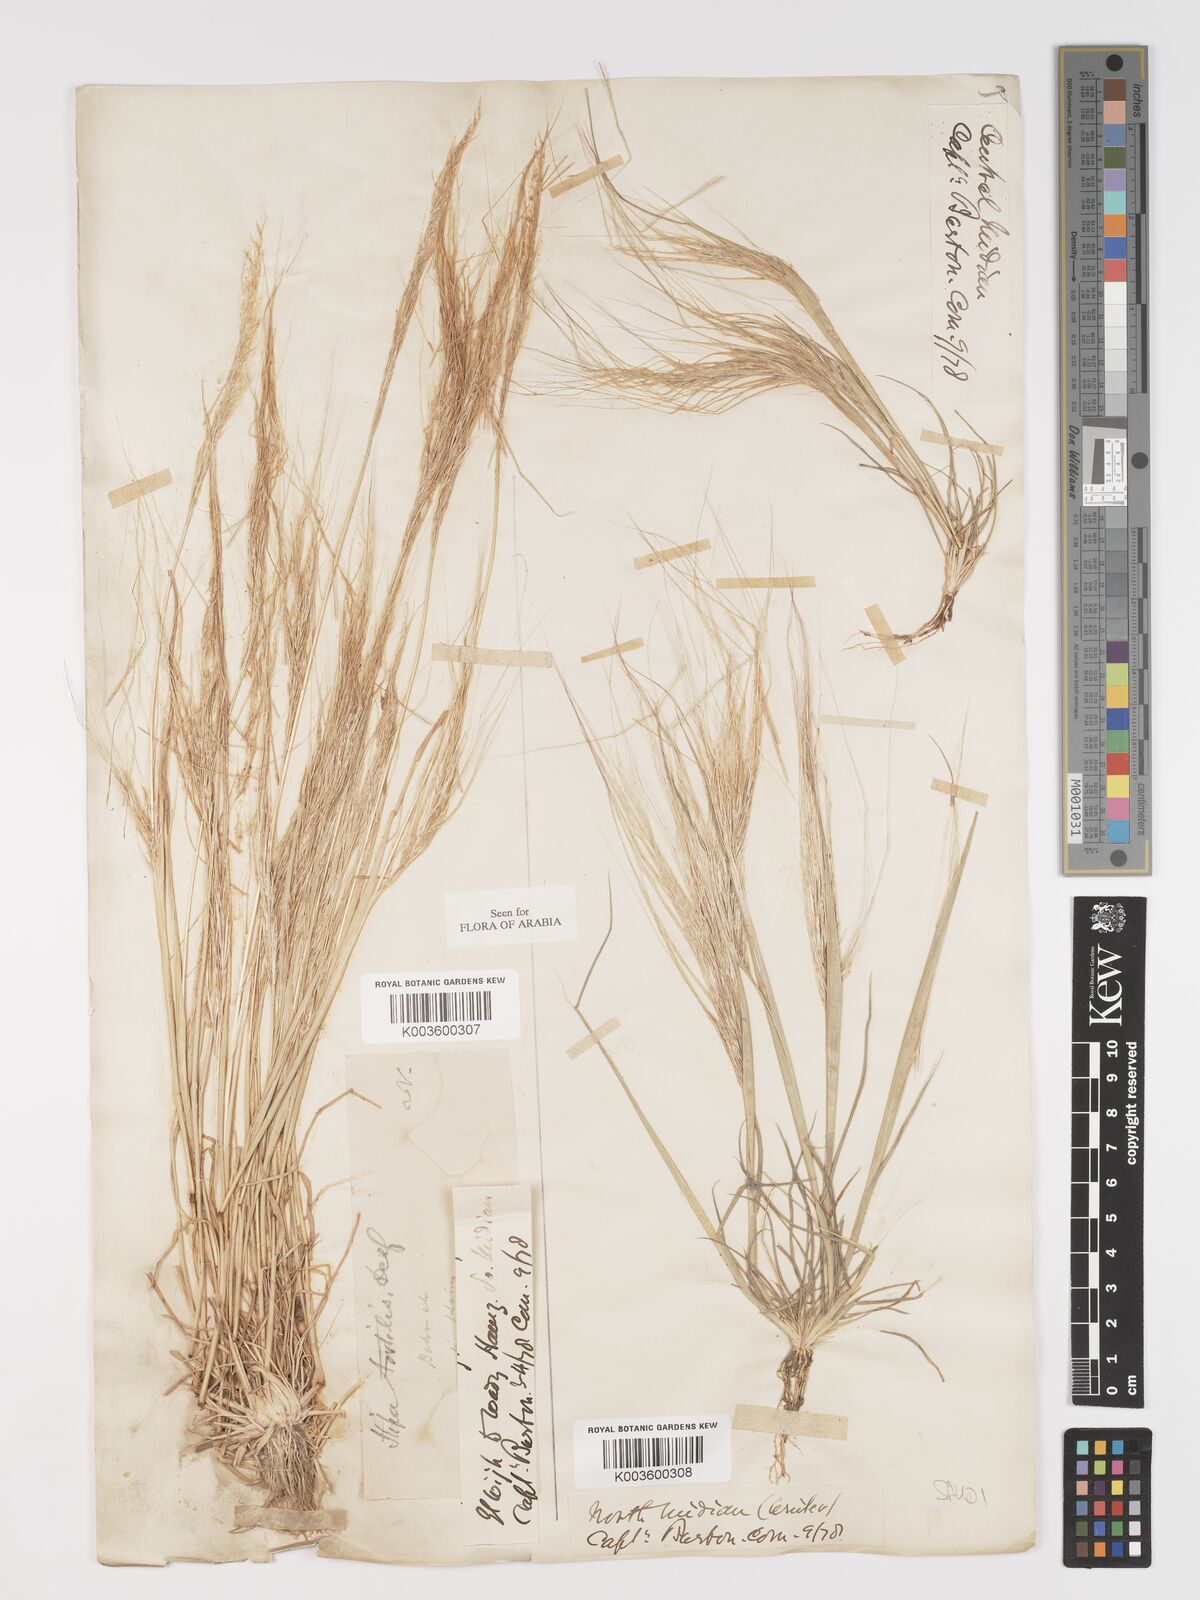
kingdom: Plantae
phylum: Tracheophyta
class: Liliopsida
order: Poales
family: Poaceae
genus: Stipellula
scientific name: Stipellula capensis
